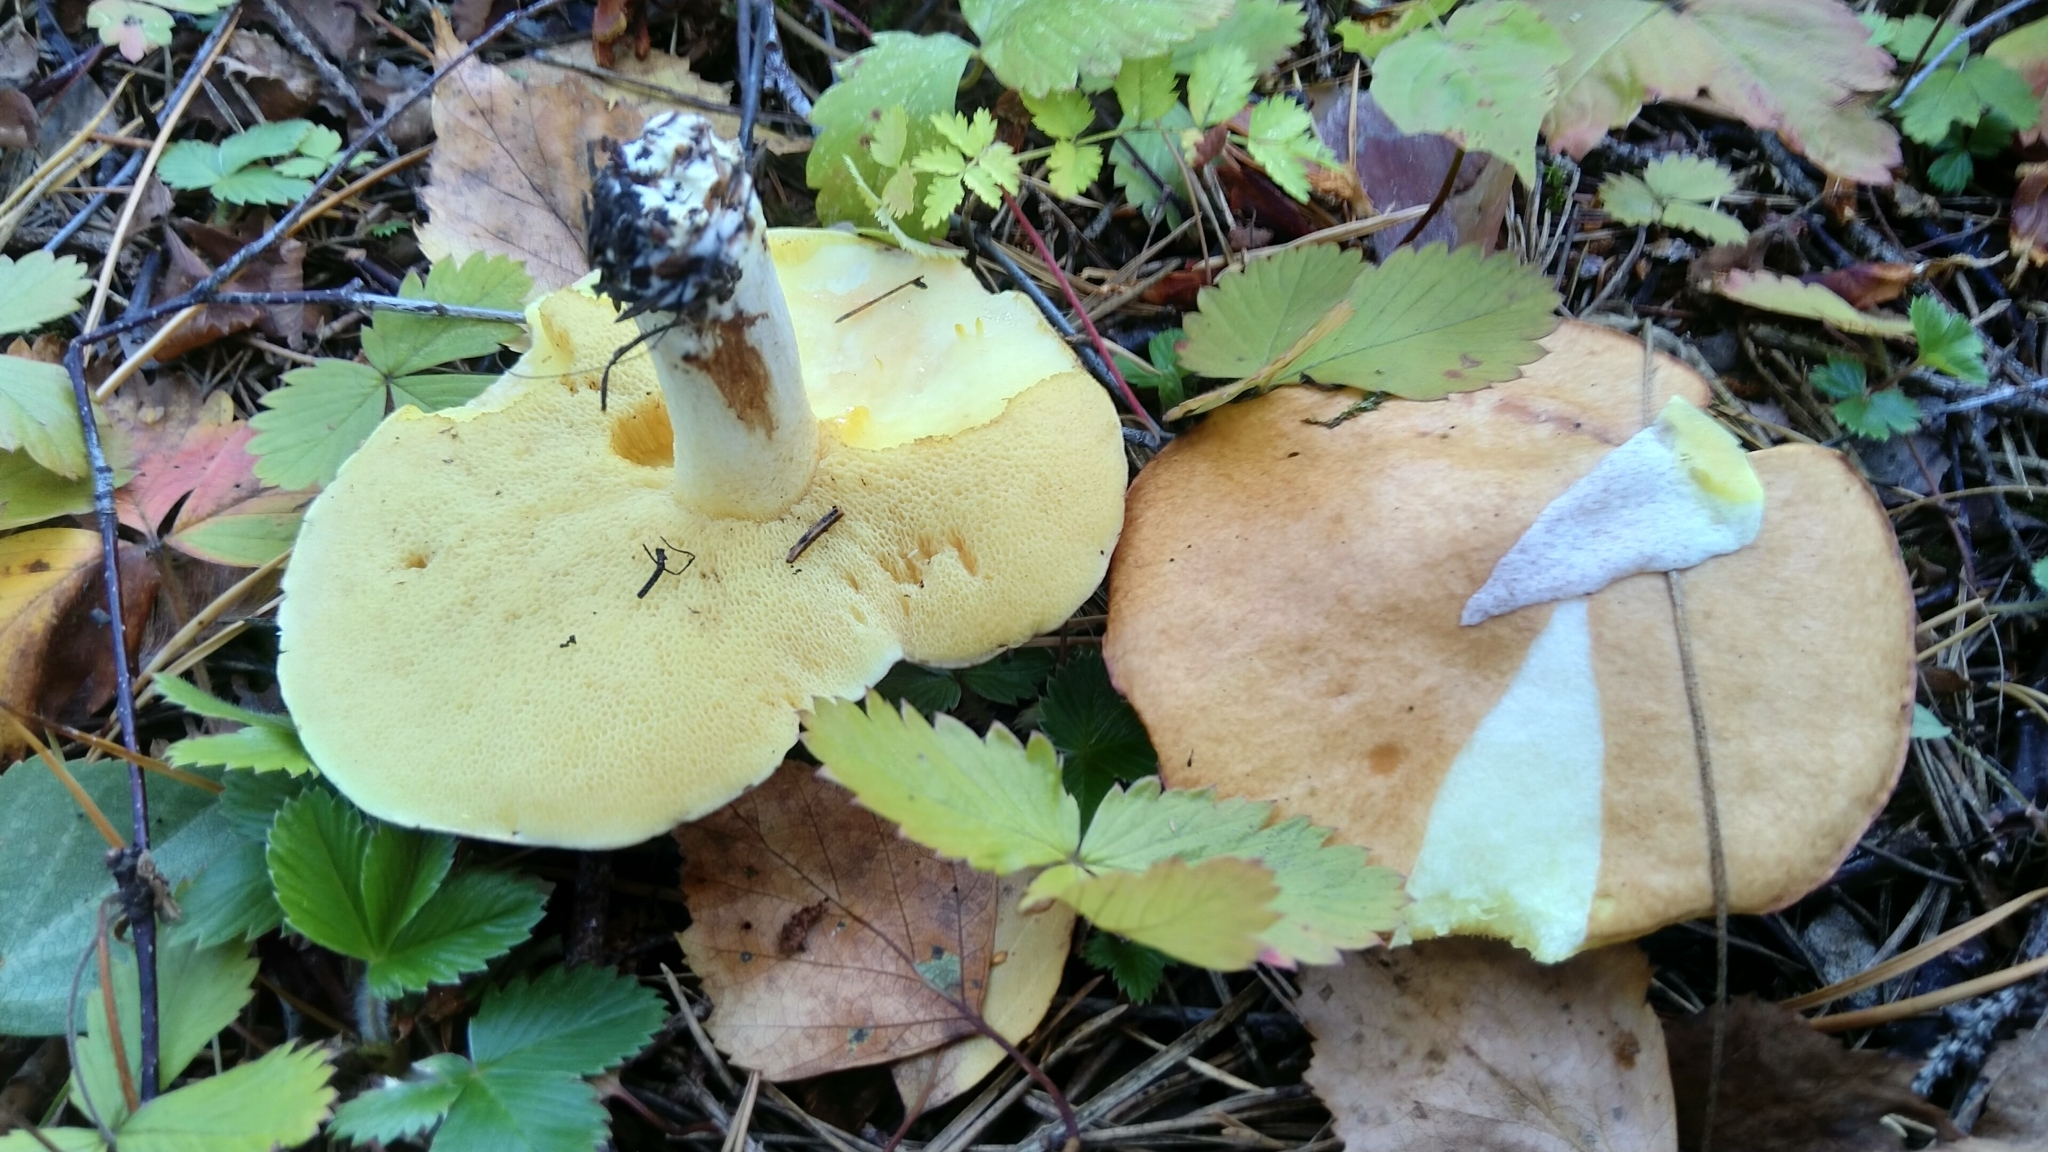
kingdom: Fungi
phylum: Basidiomycota
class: Agaricomycetes
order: Boletales
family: Suillaceae
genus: Suillus
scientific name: Suillus granulatus
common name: Weeping bolete
